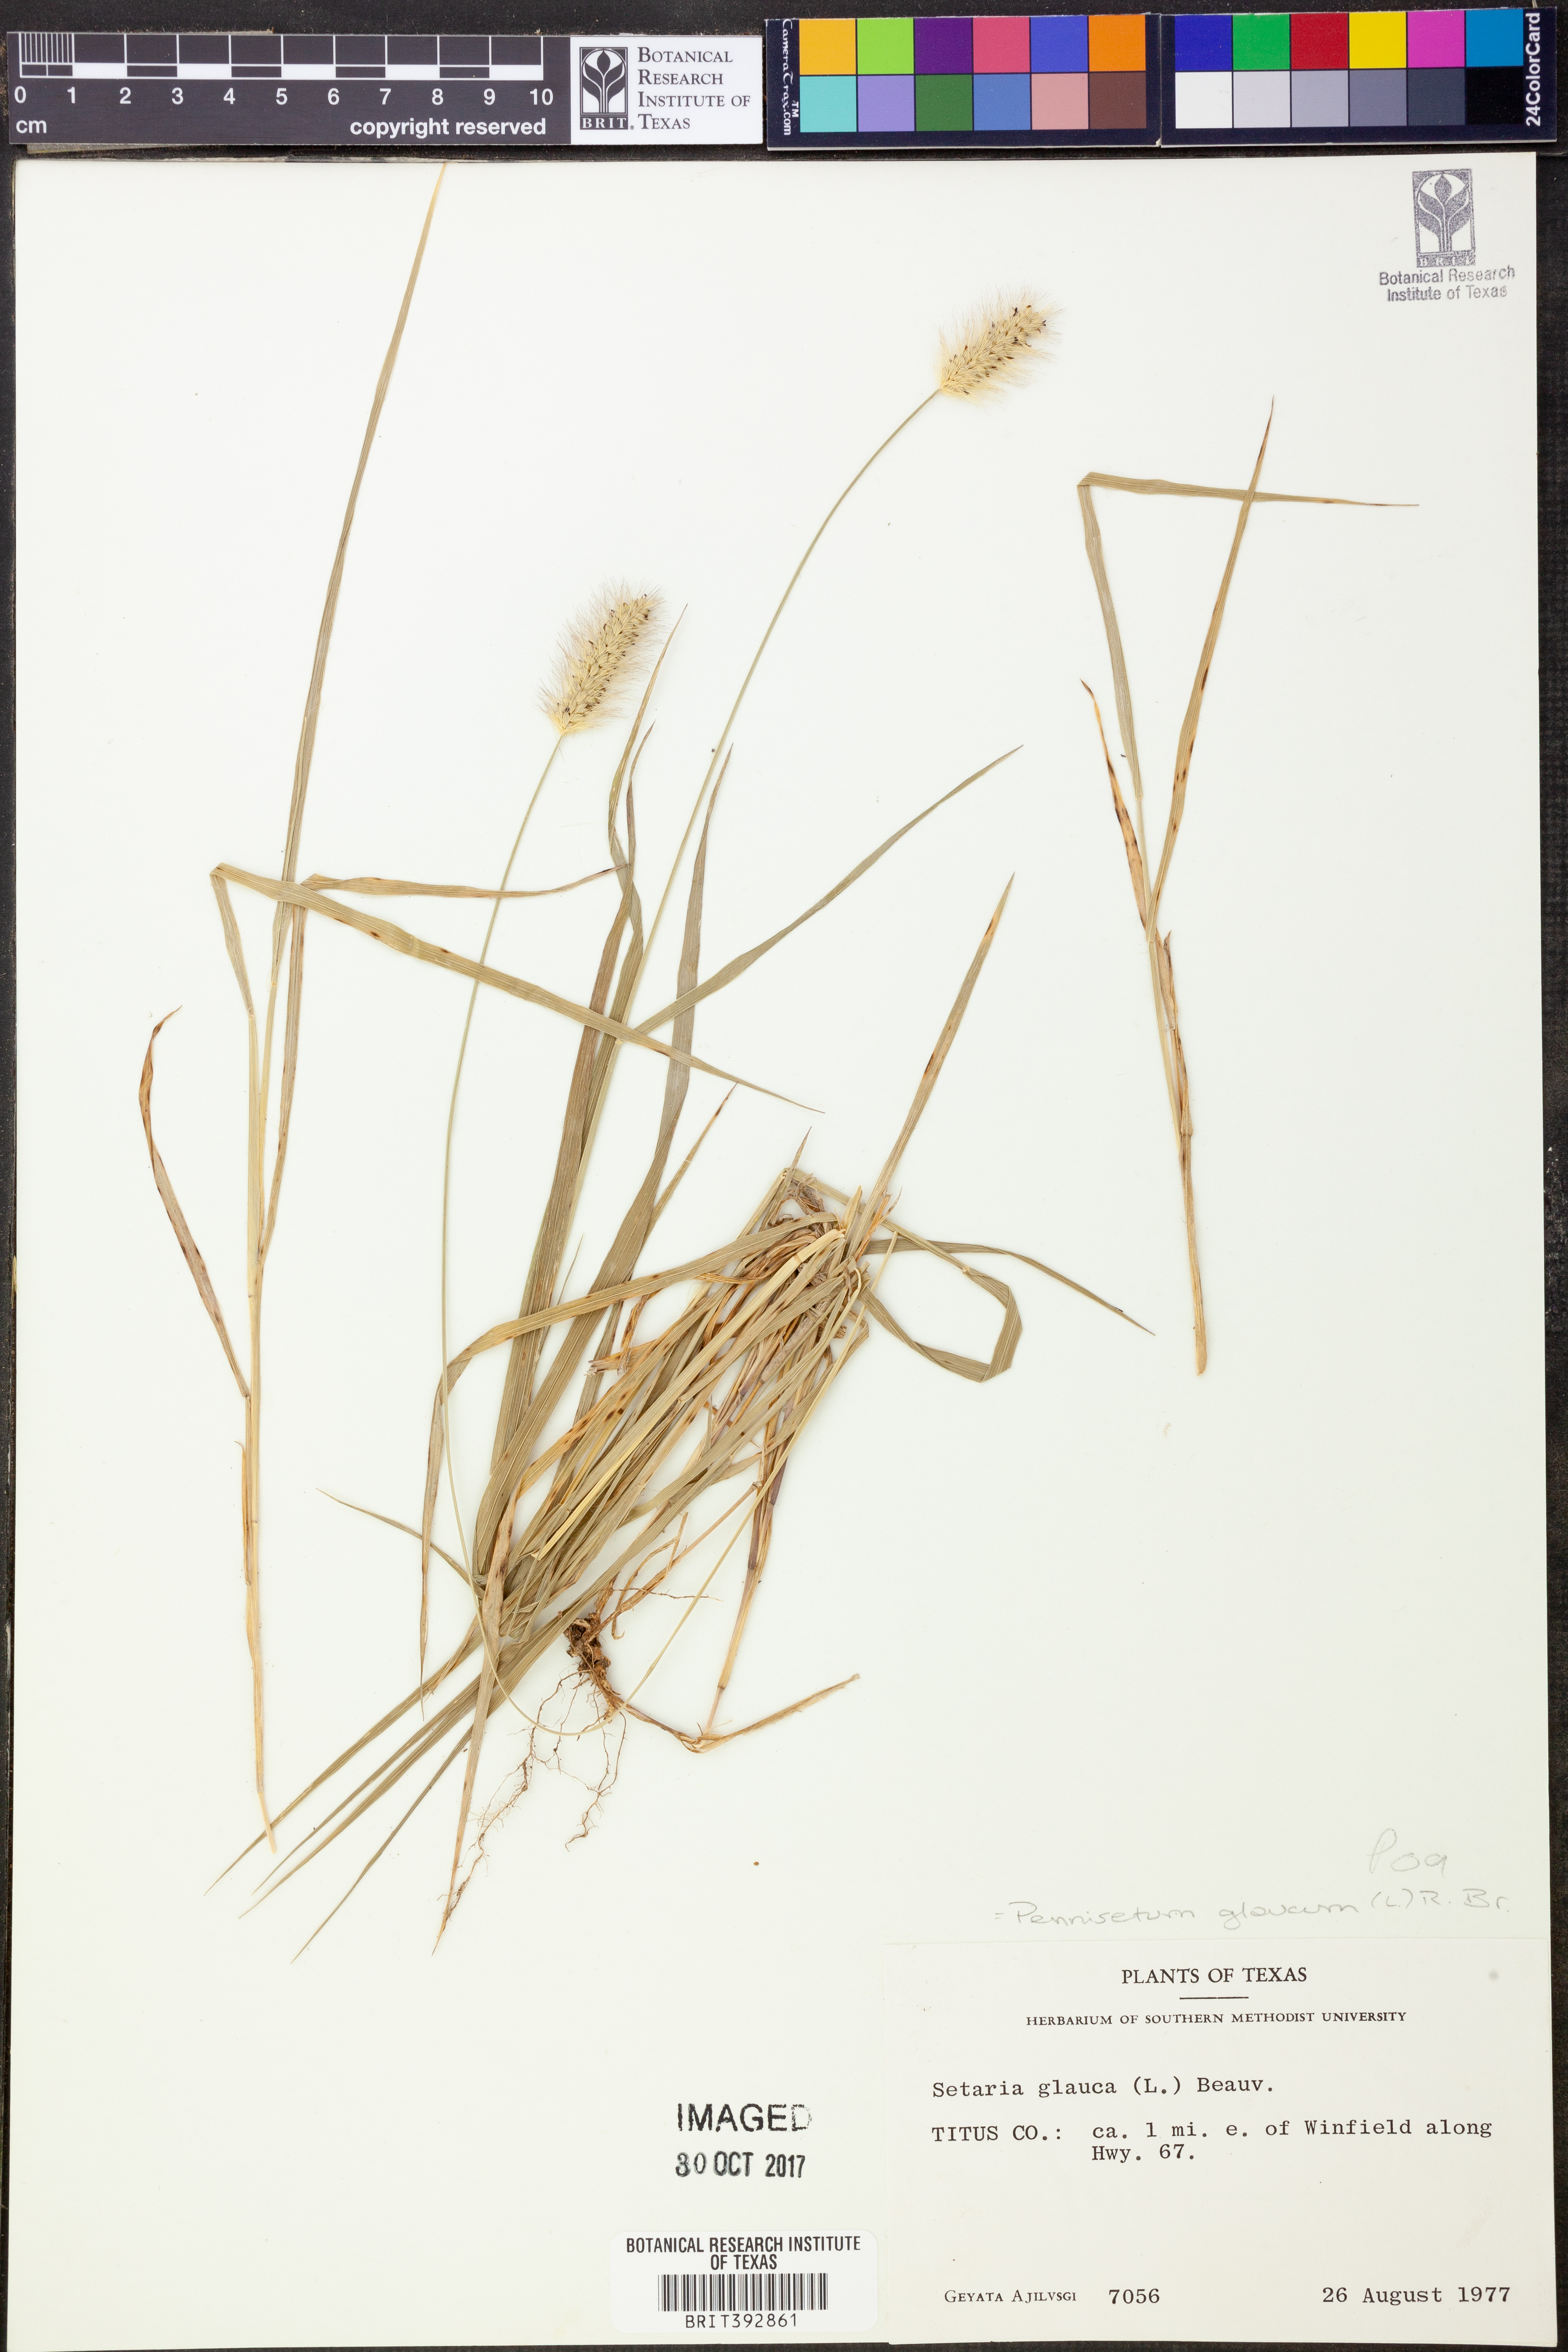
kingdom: Plantae
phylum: Tracheophyta
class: Liliopsida
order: Poales
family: Poaceae
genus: Cenchrus
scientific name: Cenchrus americanus
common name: Pearl millet
